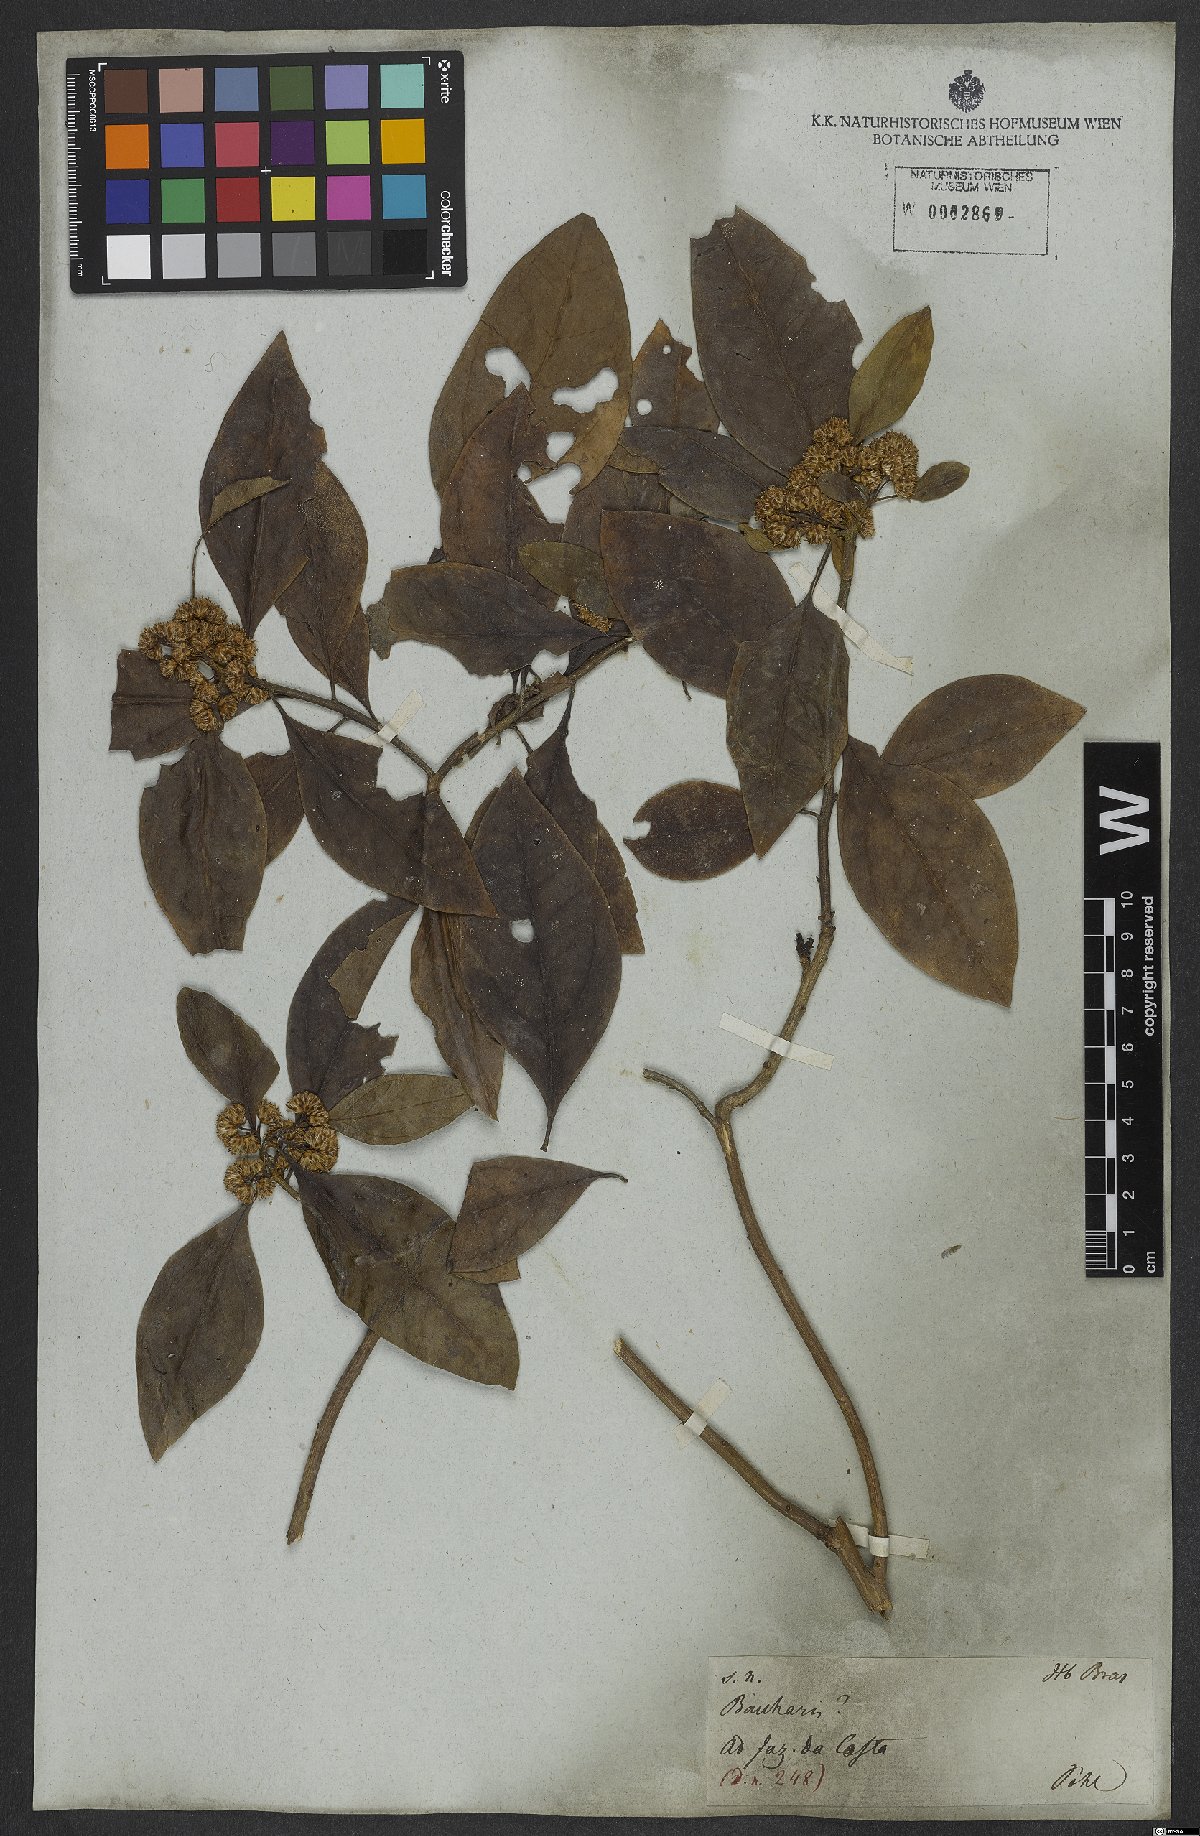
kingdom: Plantae
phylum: Tracheophyta
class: Magnoliopsida
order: Asterales
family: Asteraceae
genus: Baccharis
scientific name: Baccharis
